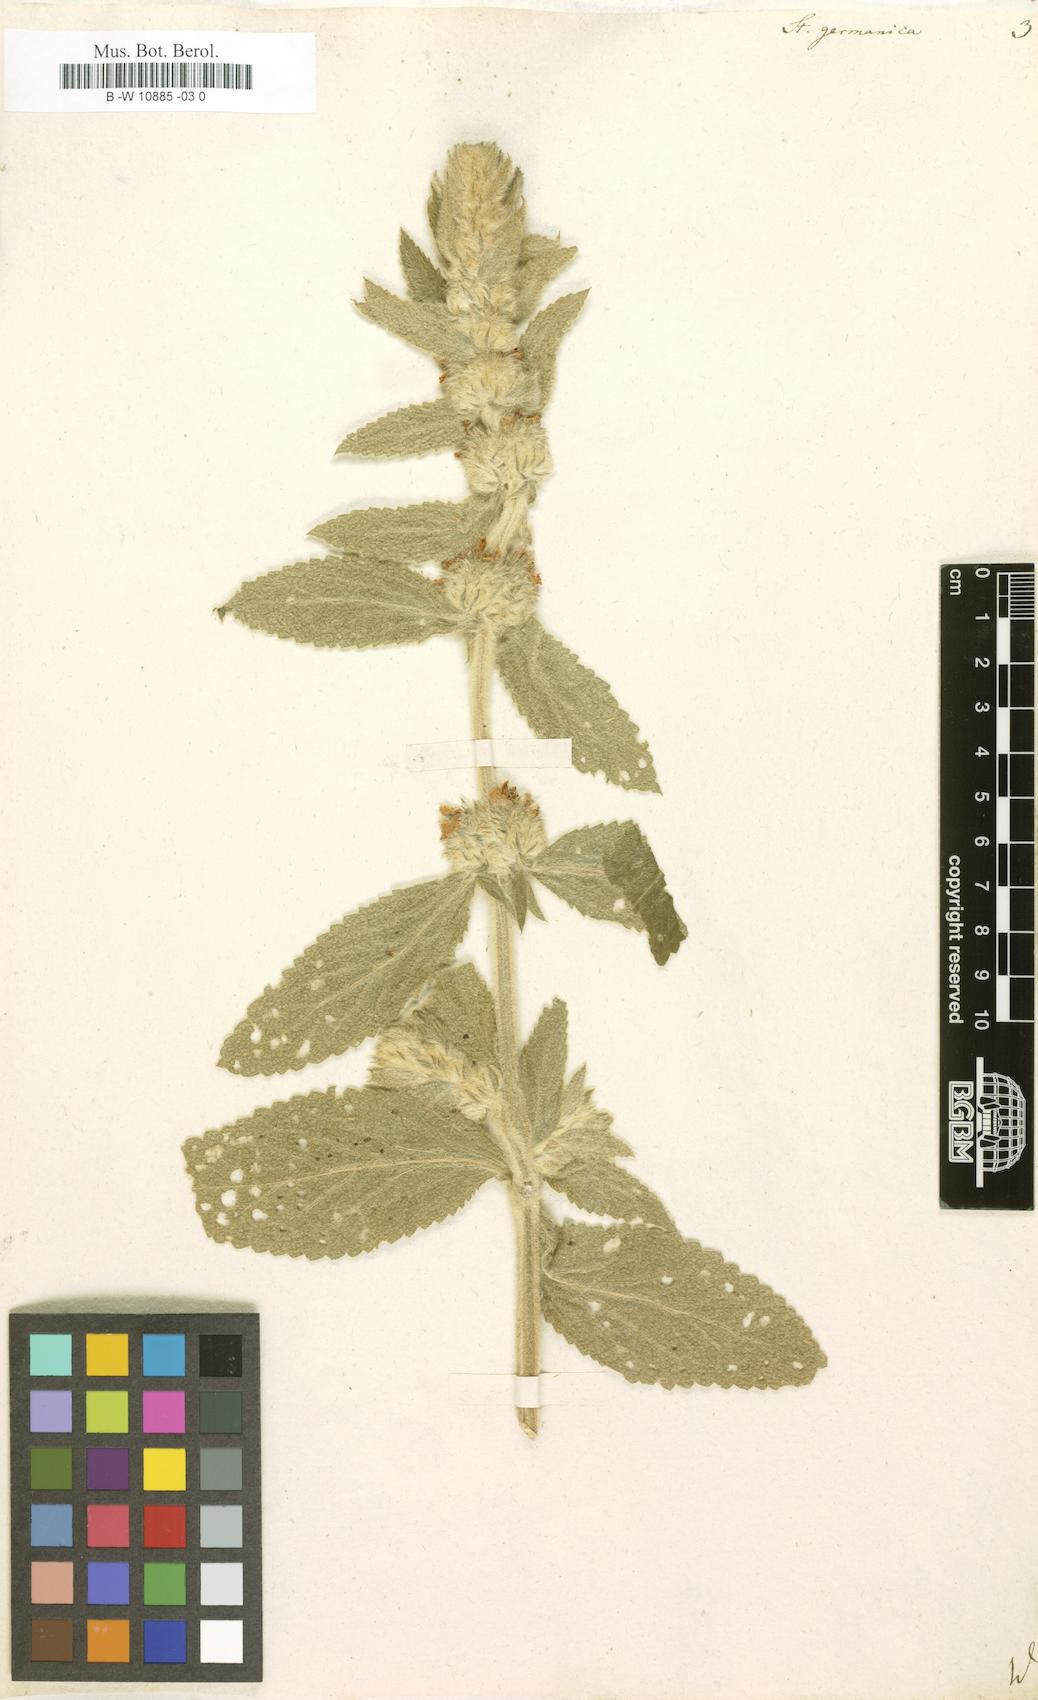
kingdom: Plantae
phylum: Tracheophyta
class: Magnoliopsida
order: Lamiales
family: Lamiaceae
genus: Stachys
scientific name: Stachys germanica
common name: Downy woundwort
